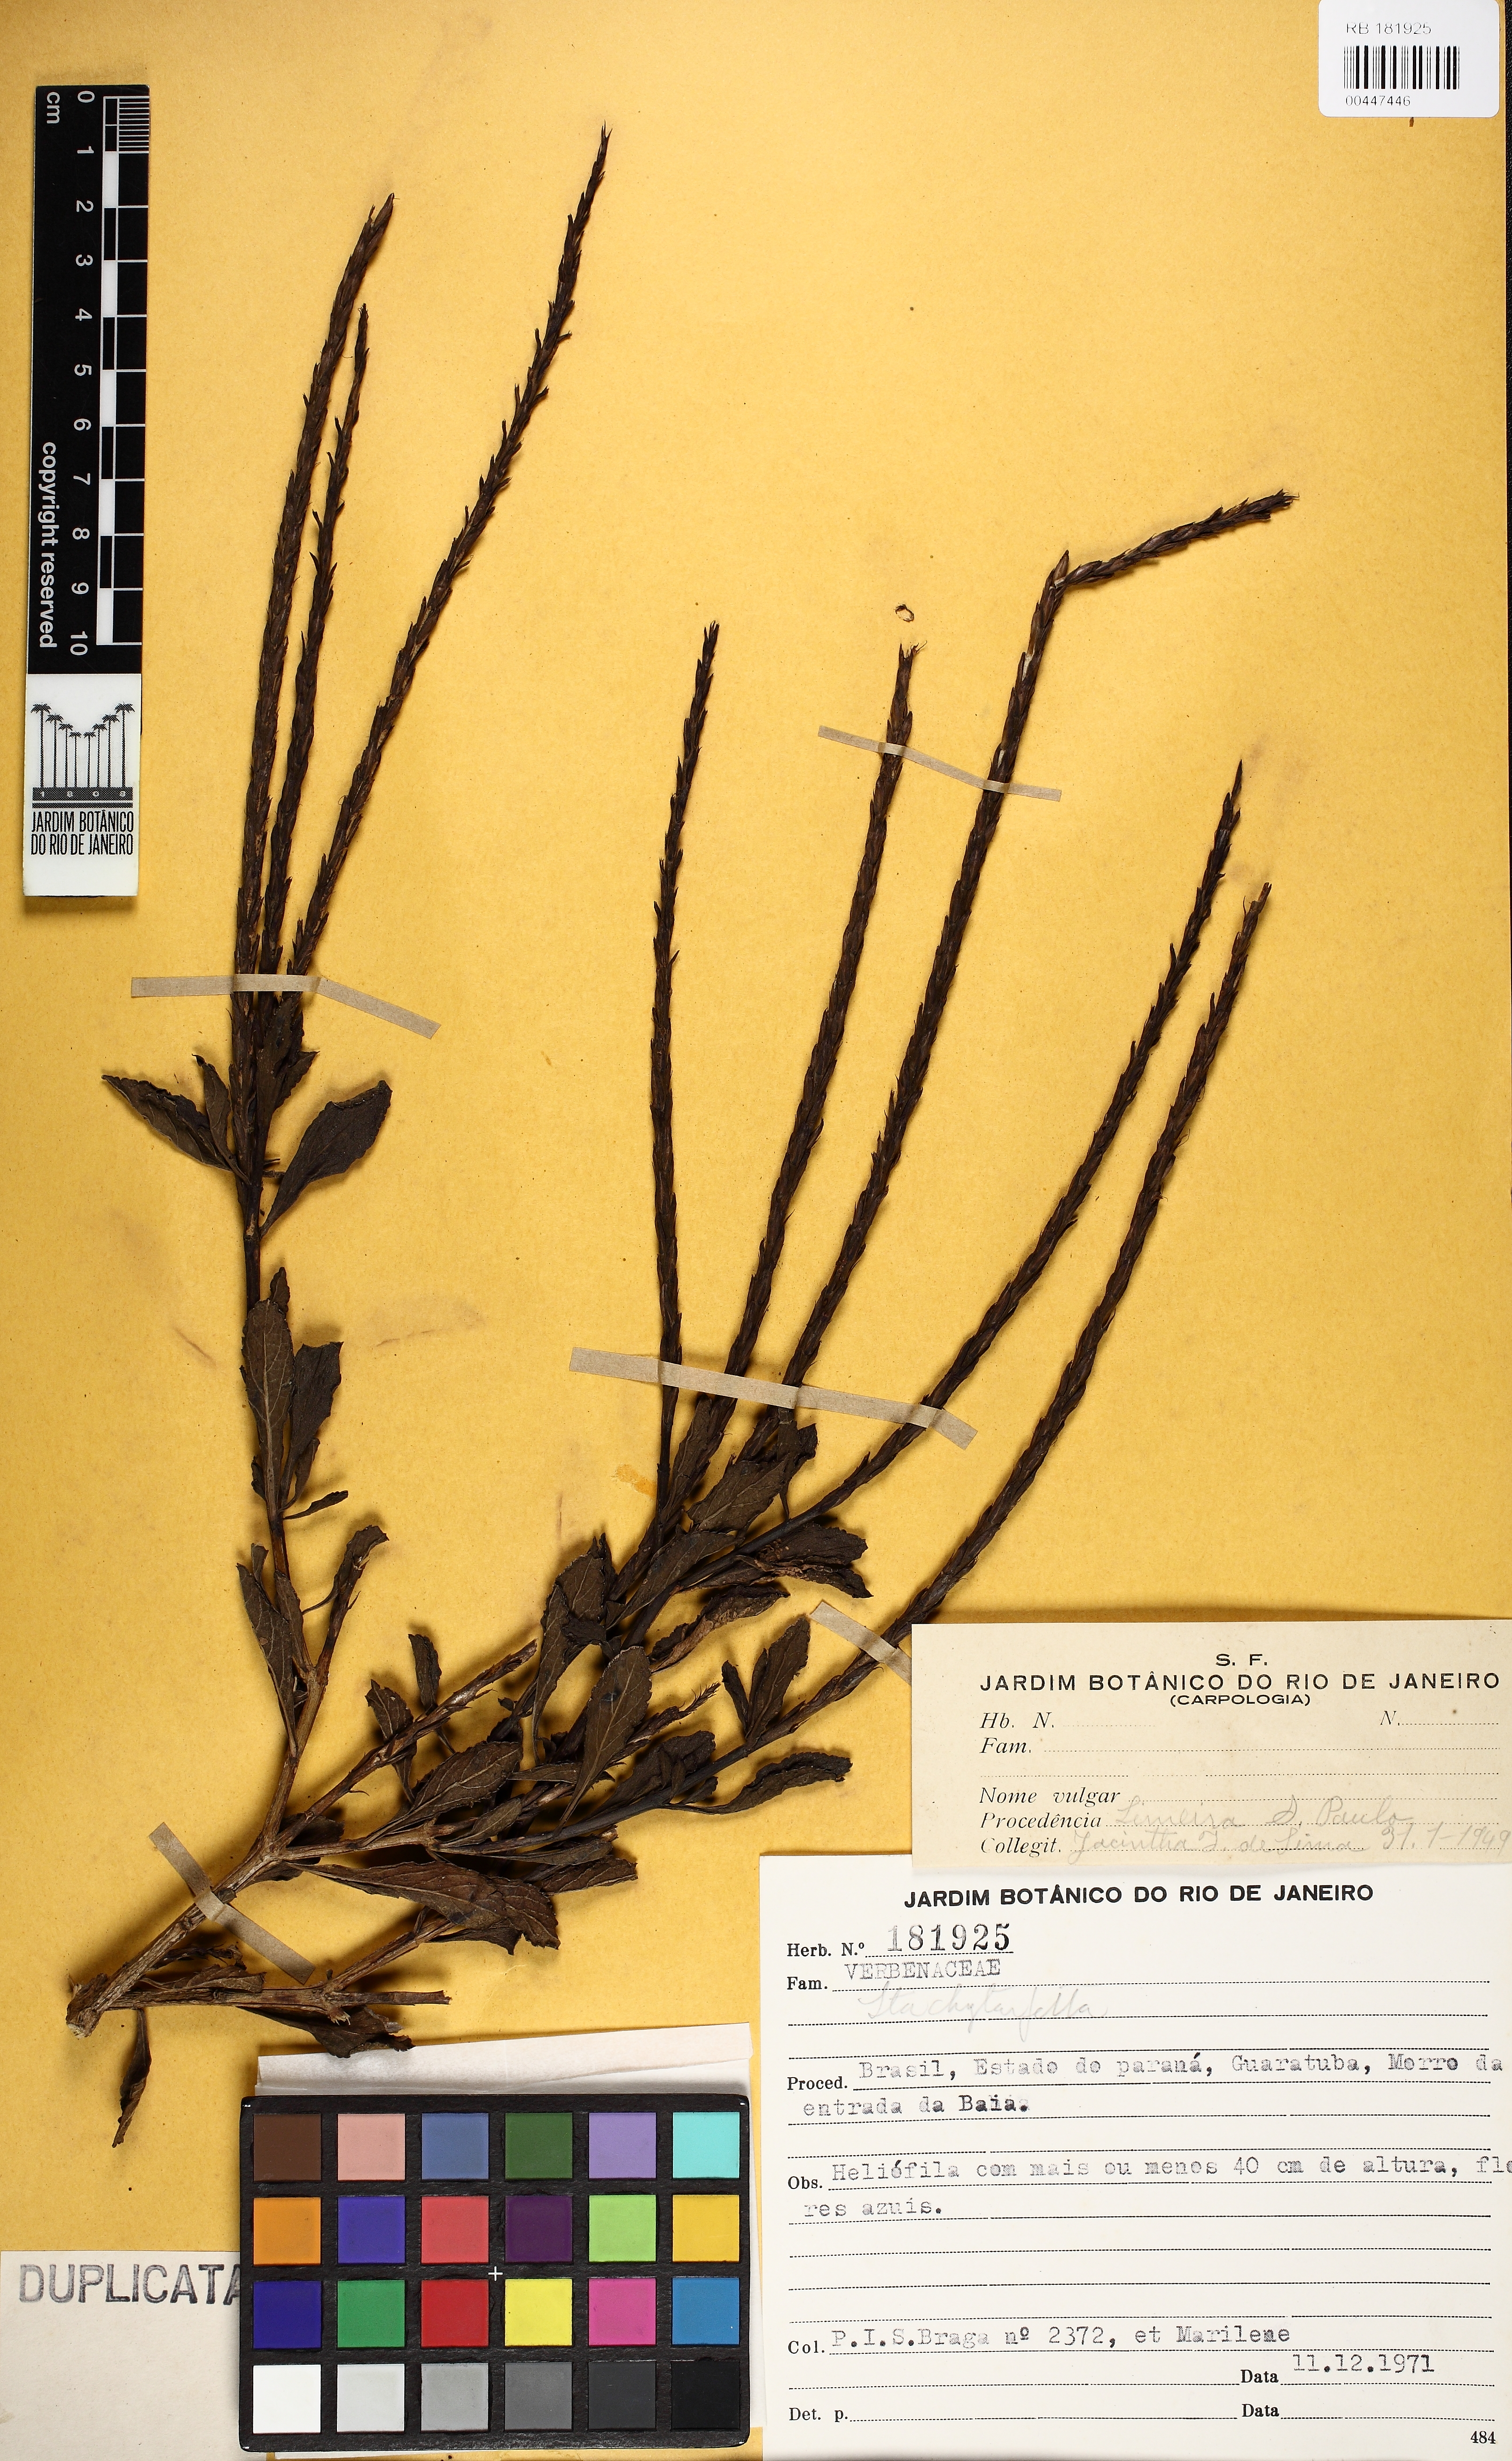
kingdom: Plantae
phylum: Tracheophyta
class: Magnoliopsida
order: Lamiales
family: Verbenaceae
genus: Stachytarpheta
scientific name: Stachytarpheta
